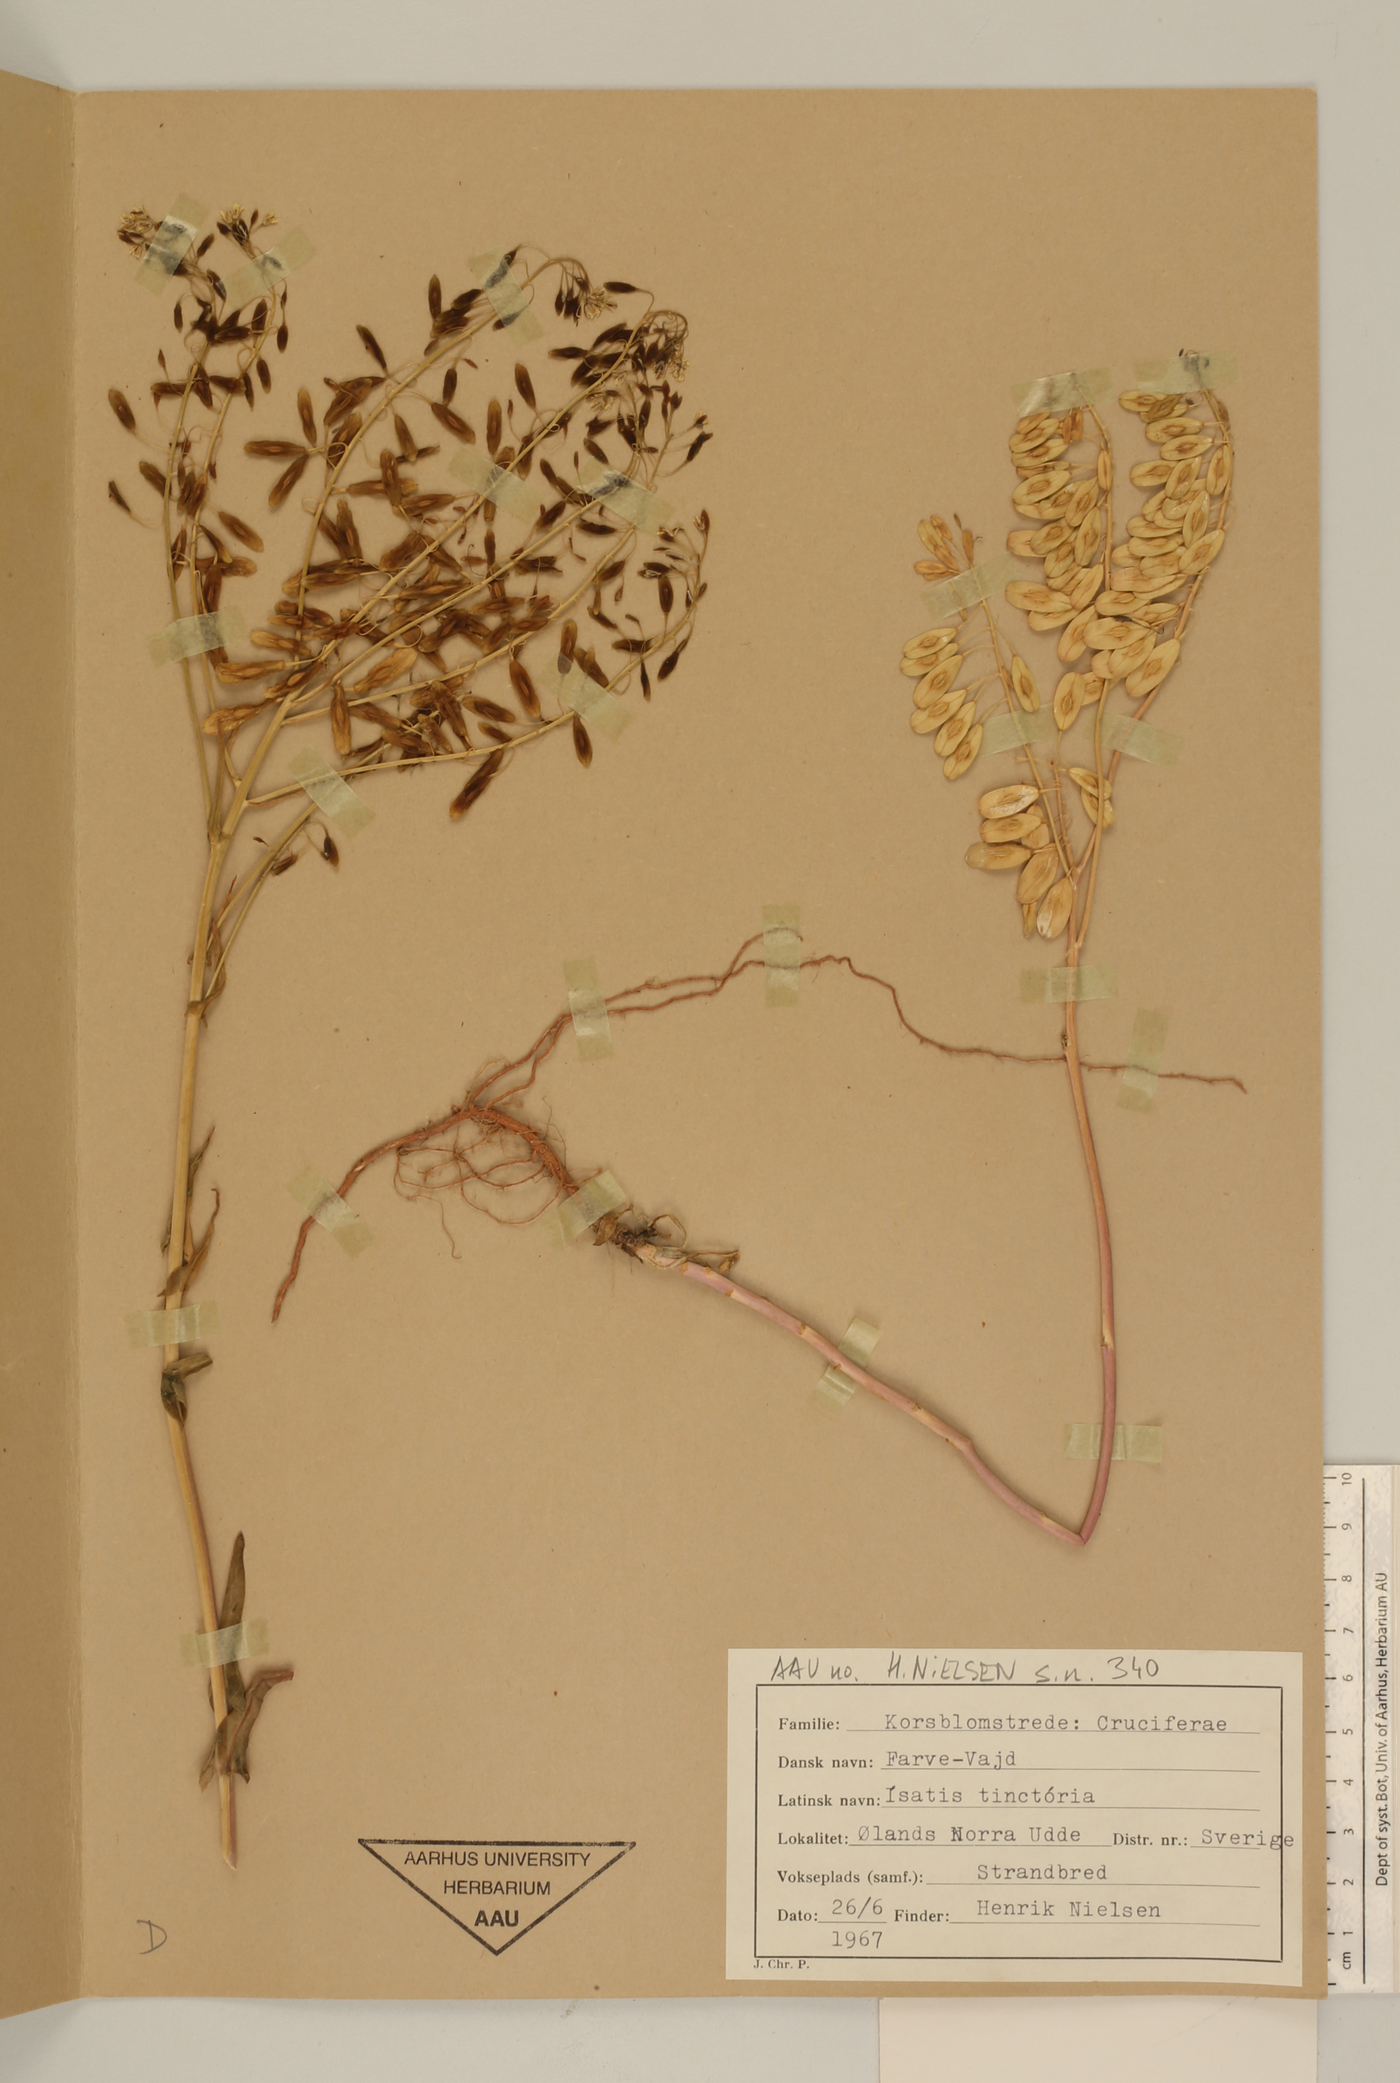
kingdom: Plantae
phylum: Tracheophyta
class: Magnoliopsida
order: Brassicales
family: Brassicaceae
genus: Isatis
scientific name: Isatis tinctoria
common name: Woad
